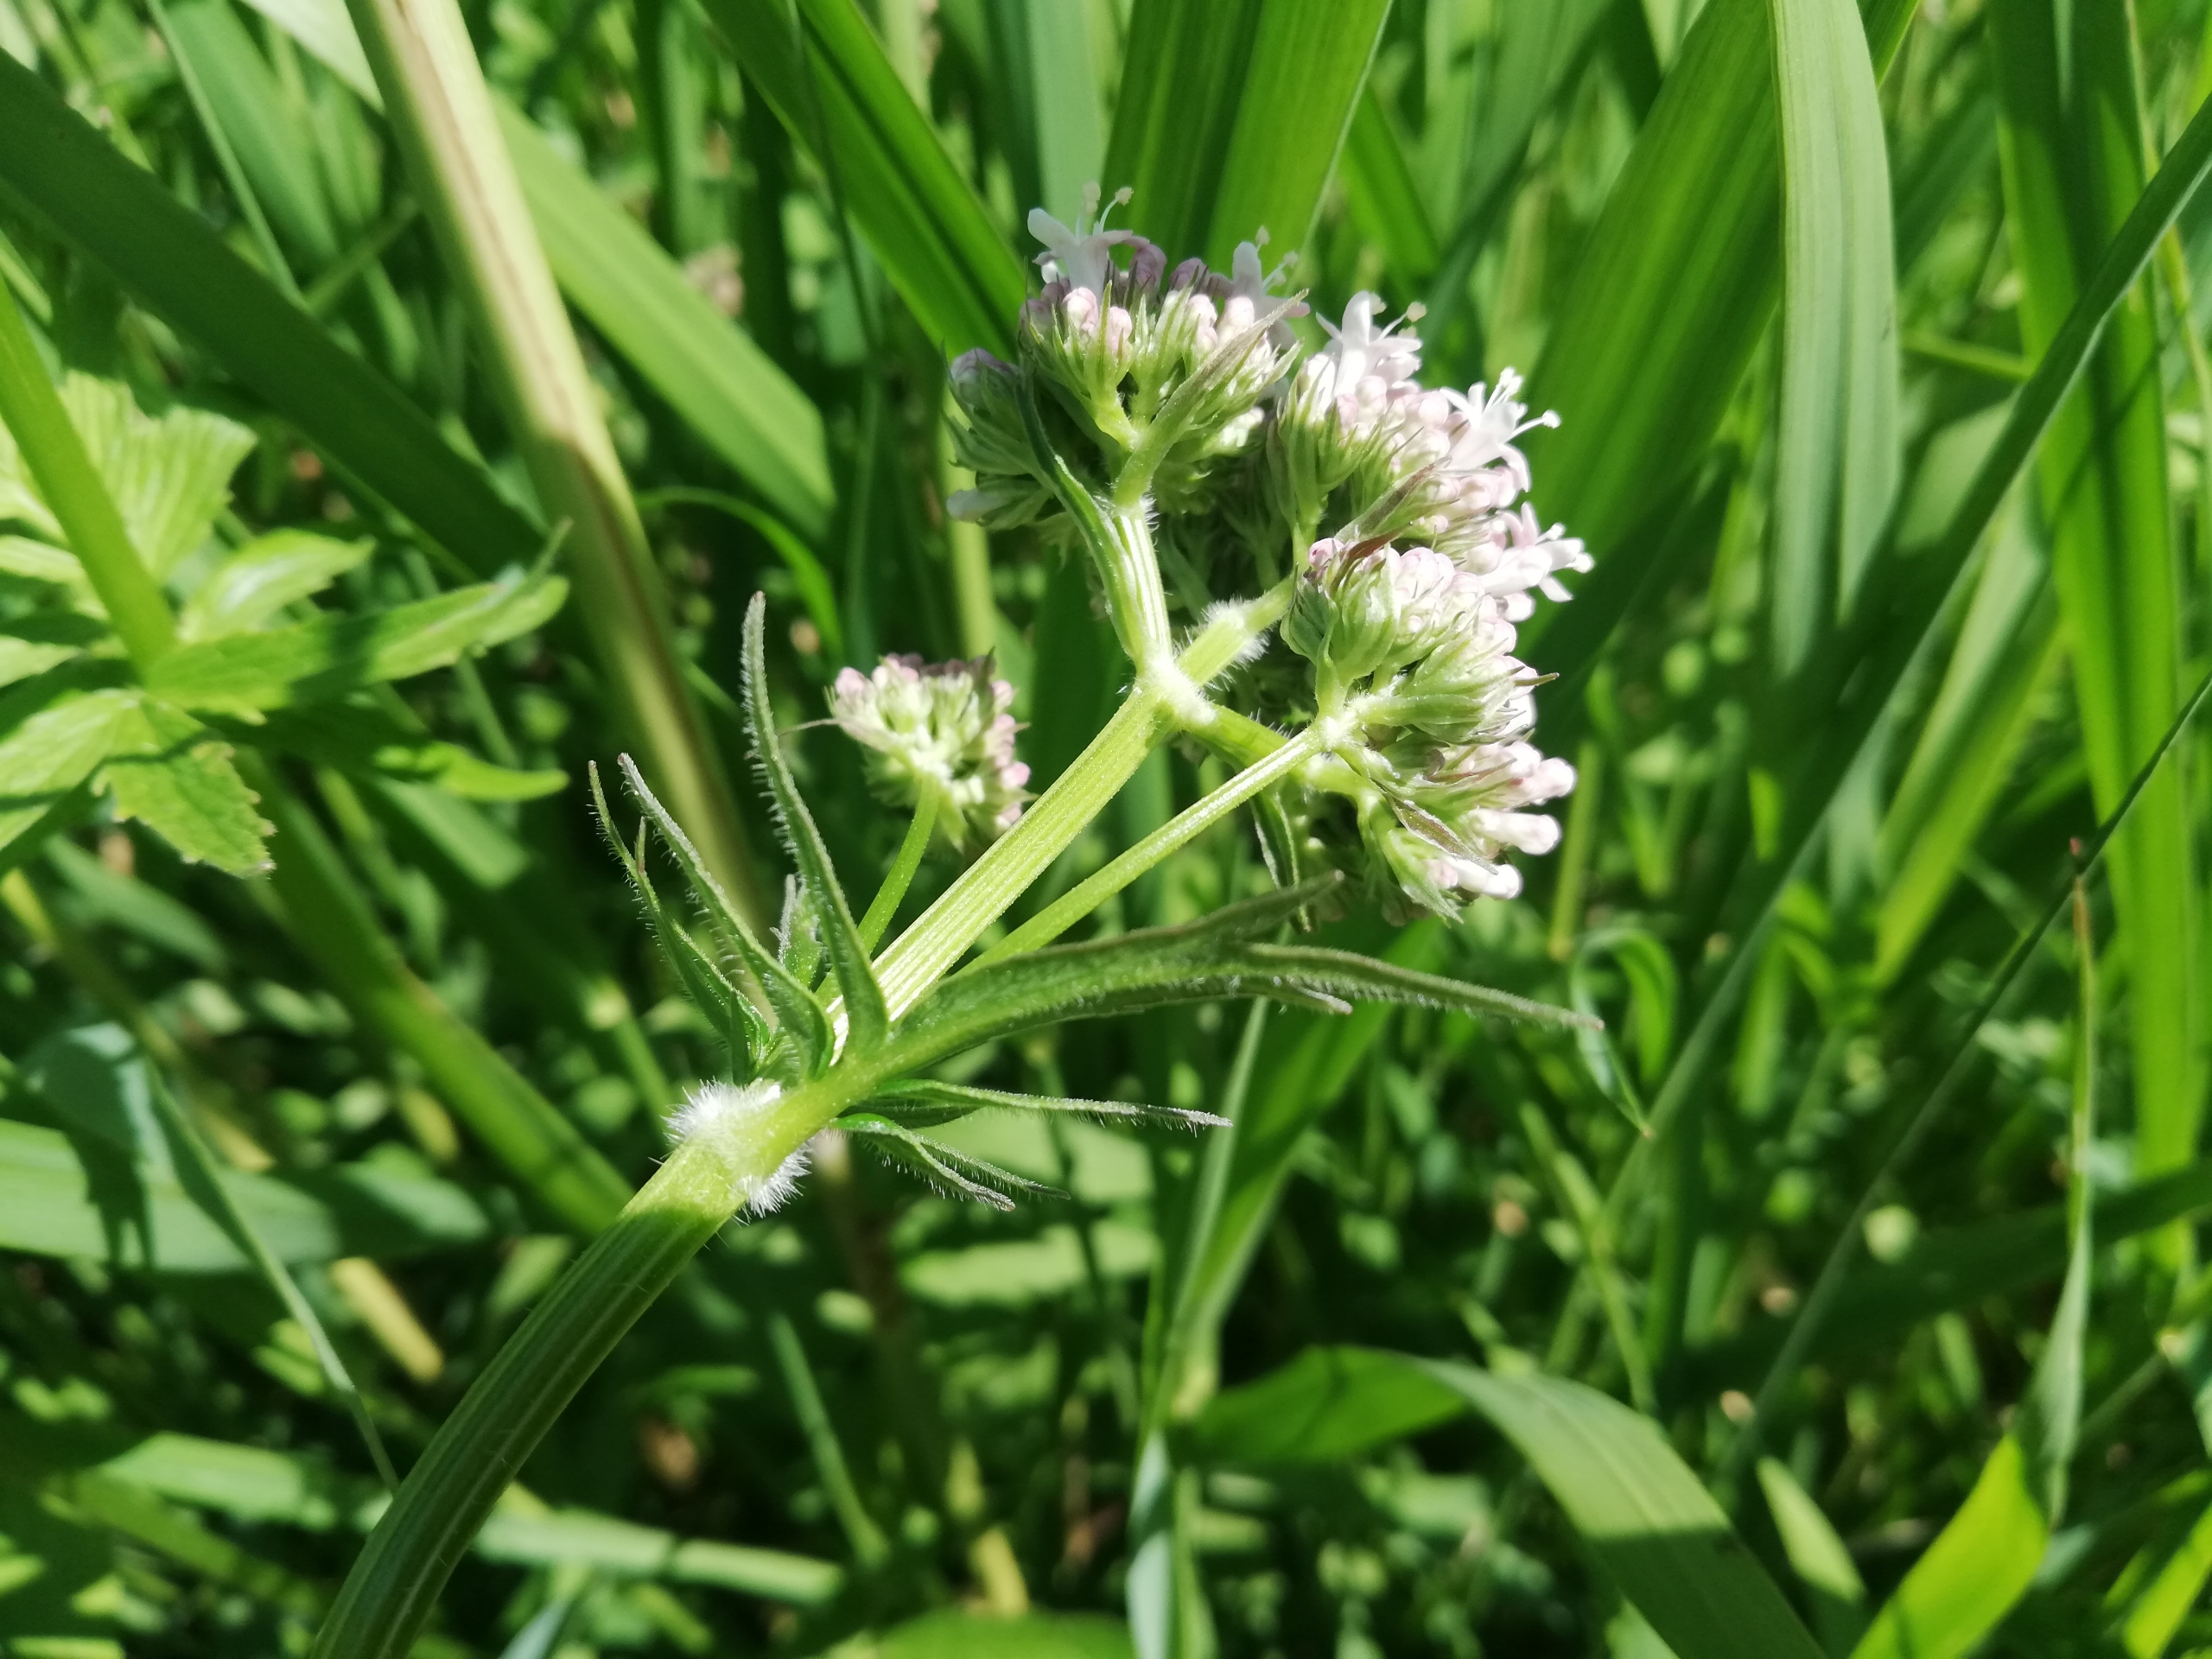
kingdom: Plantae
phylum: Tracheophyta
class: Magnoliopsida
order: Dipsacales
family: Caprifoliaceae
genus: Valeriana
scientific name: Valeriana sambucifolia
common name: Hyldebladet baldrian
